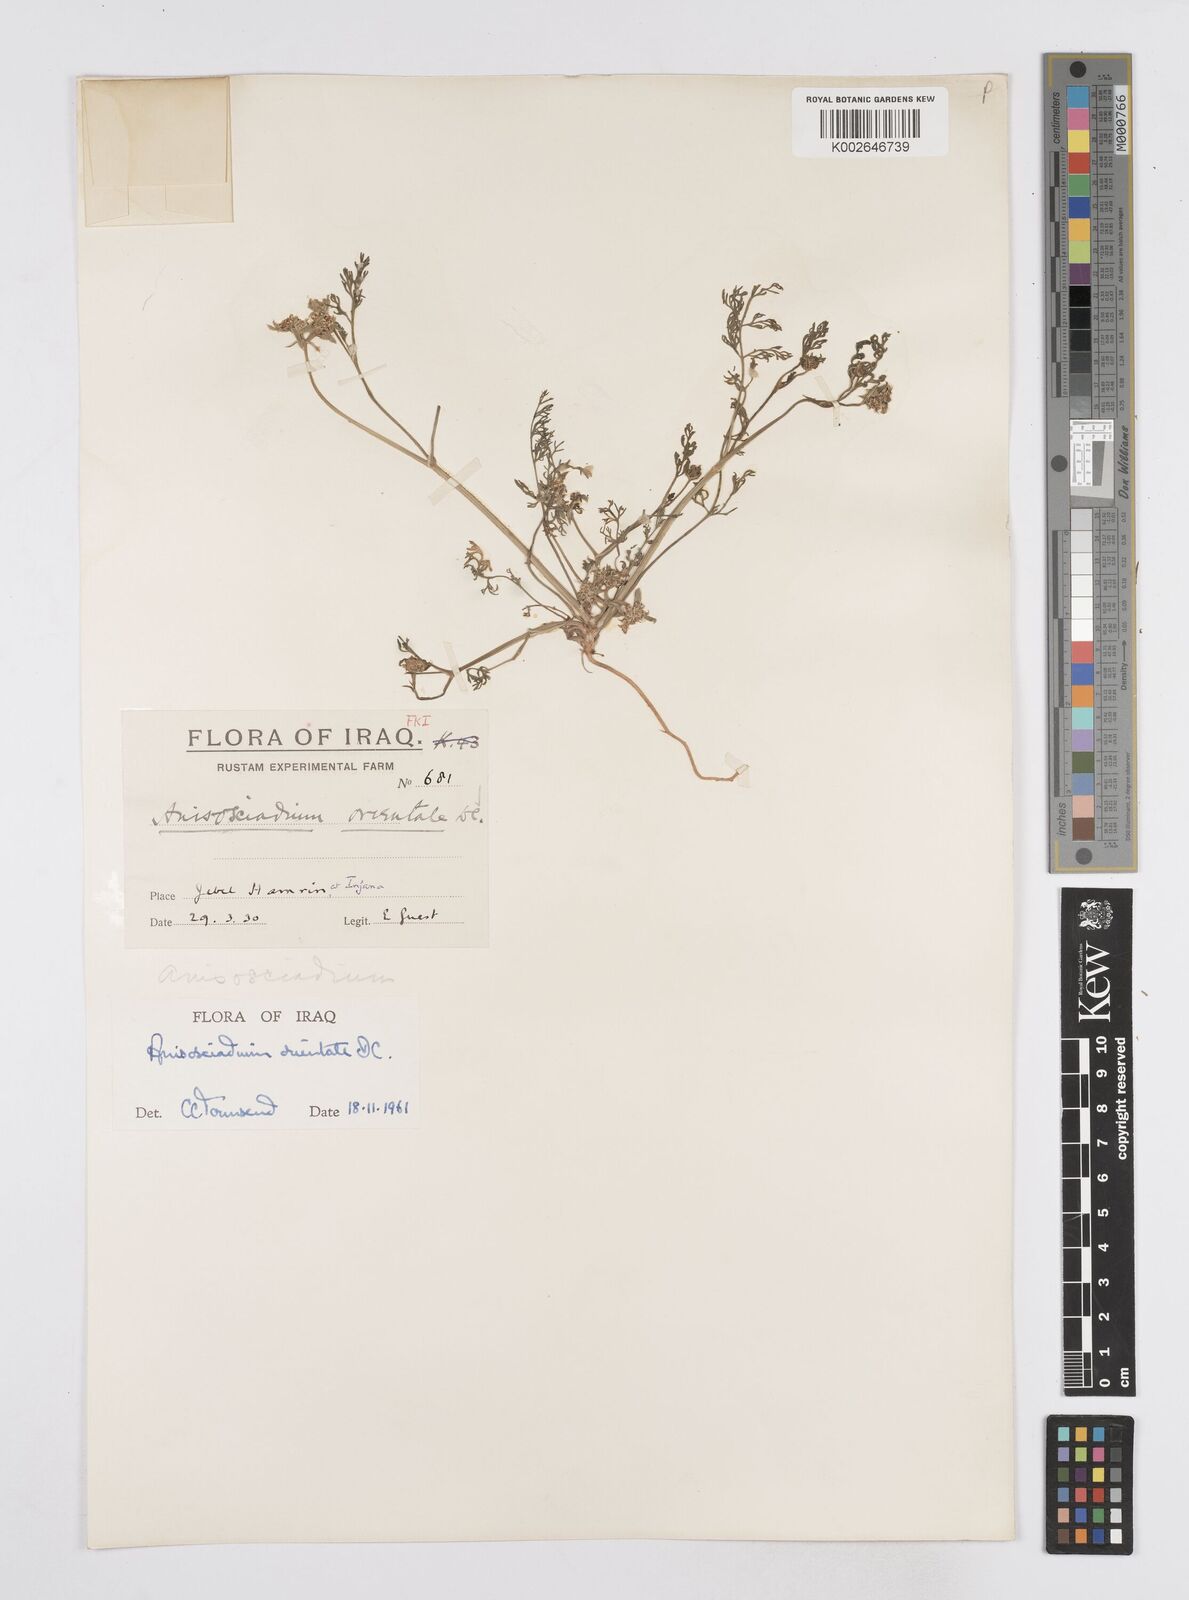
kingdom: Plantae
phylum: Tracheophyta
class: Magnoliopsida
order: Apiales
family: Apiaceae
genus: Anisosciadium
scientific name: Anisosciadium orientale
